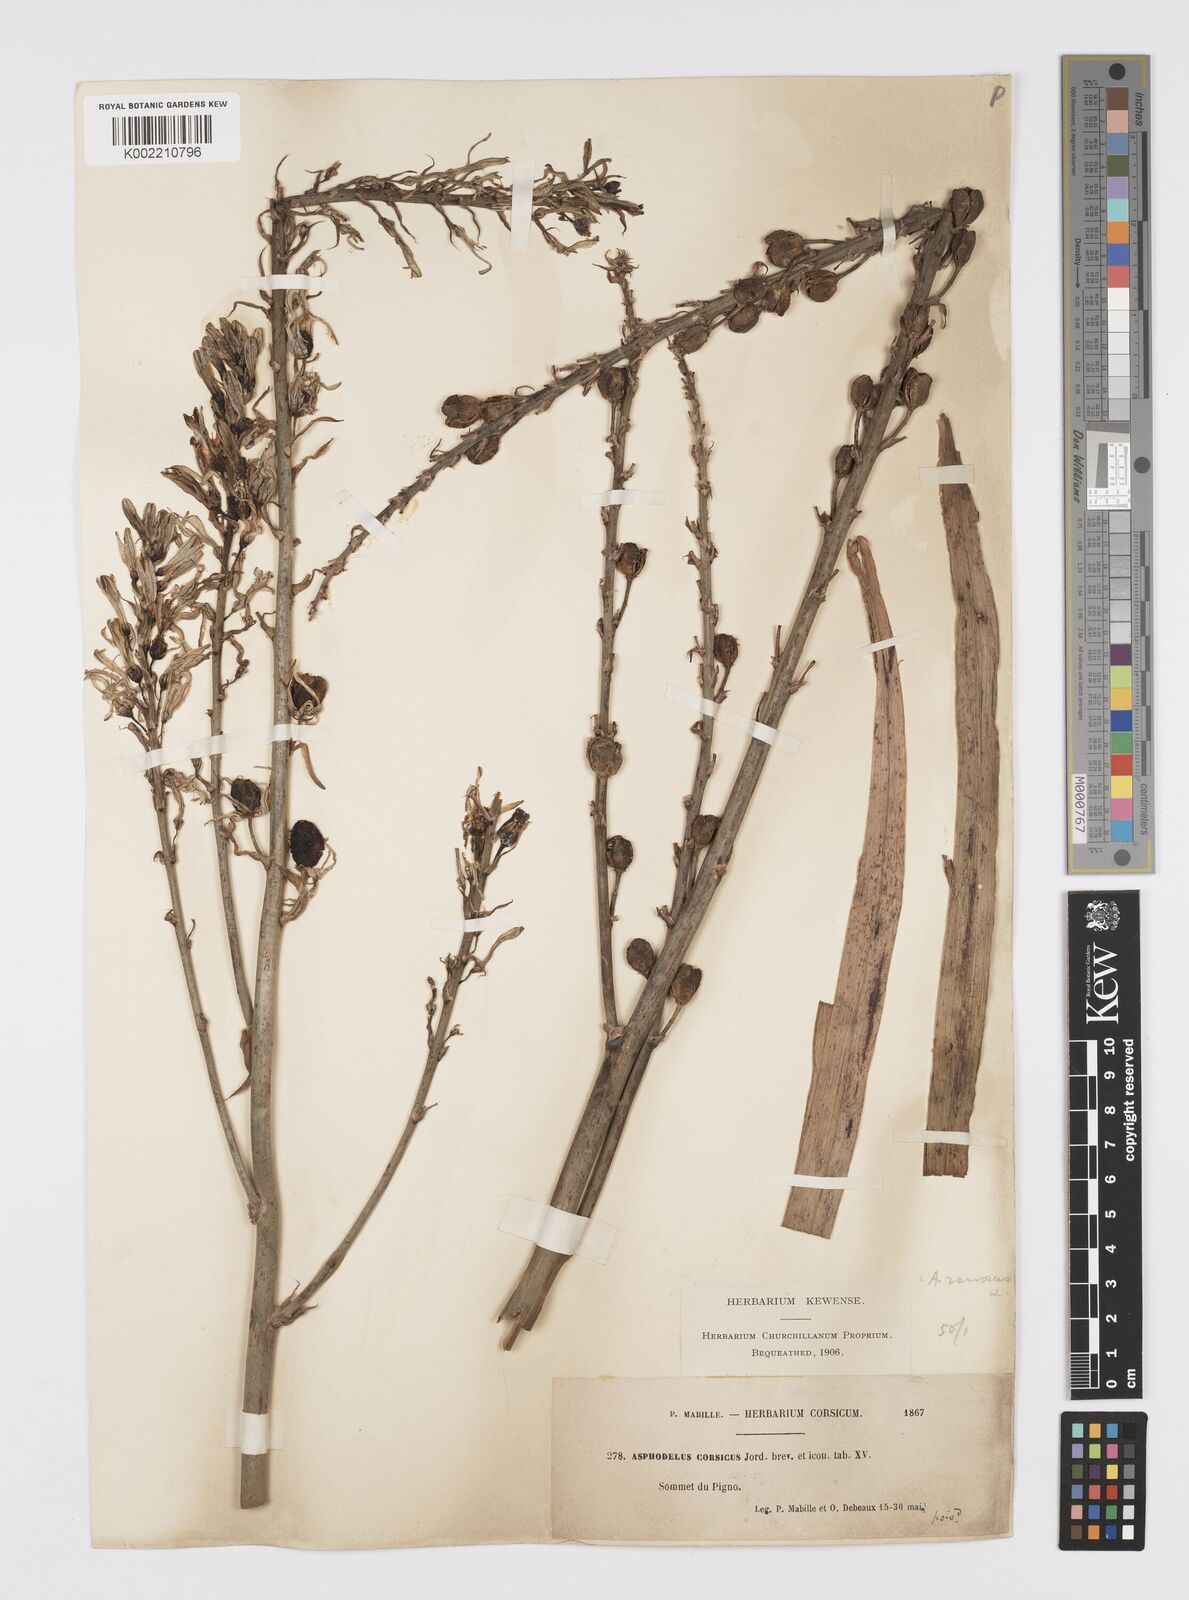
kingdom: Plantae
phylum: Tracheophyta
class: Liliopsida
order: Asparagales
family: Asphodelaceae
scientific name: Asphodelaceae
